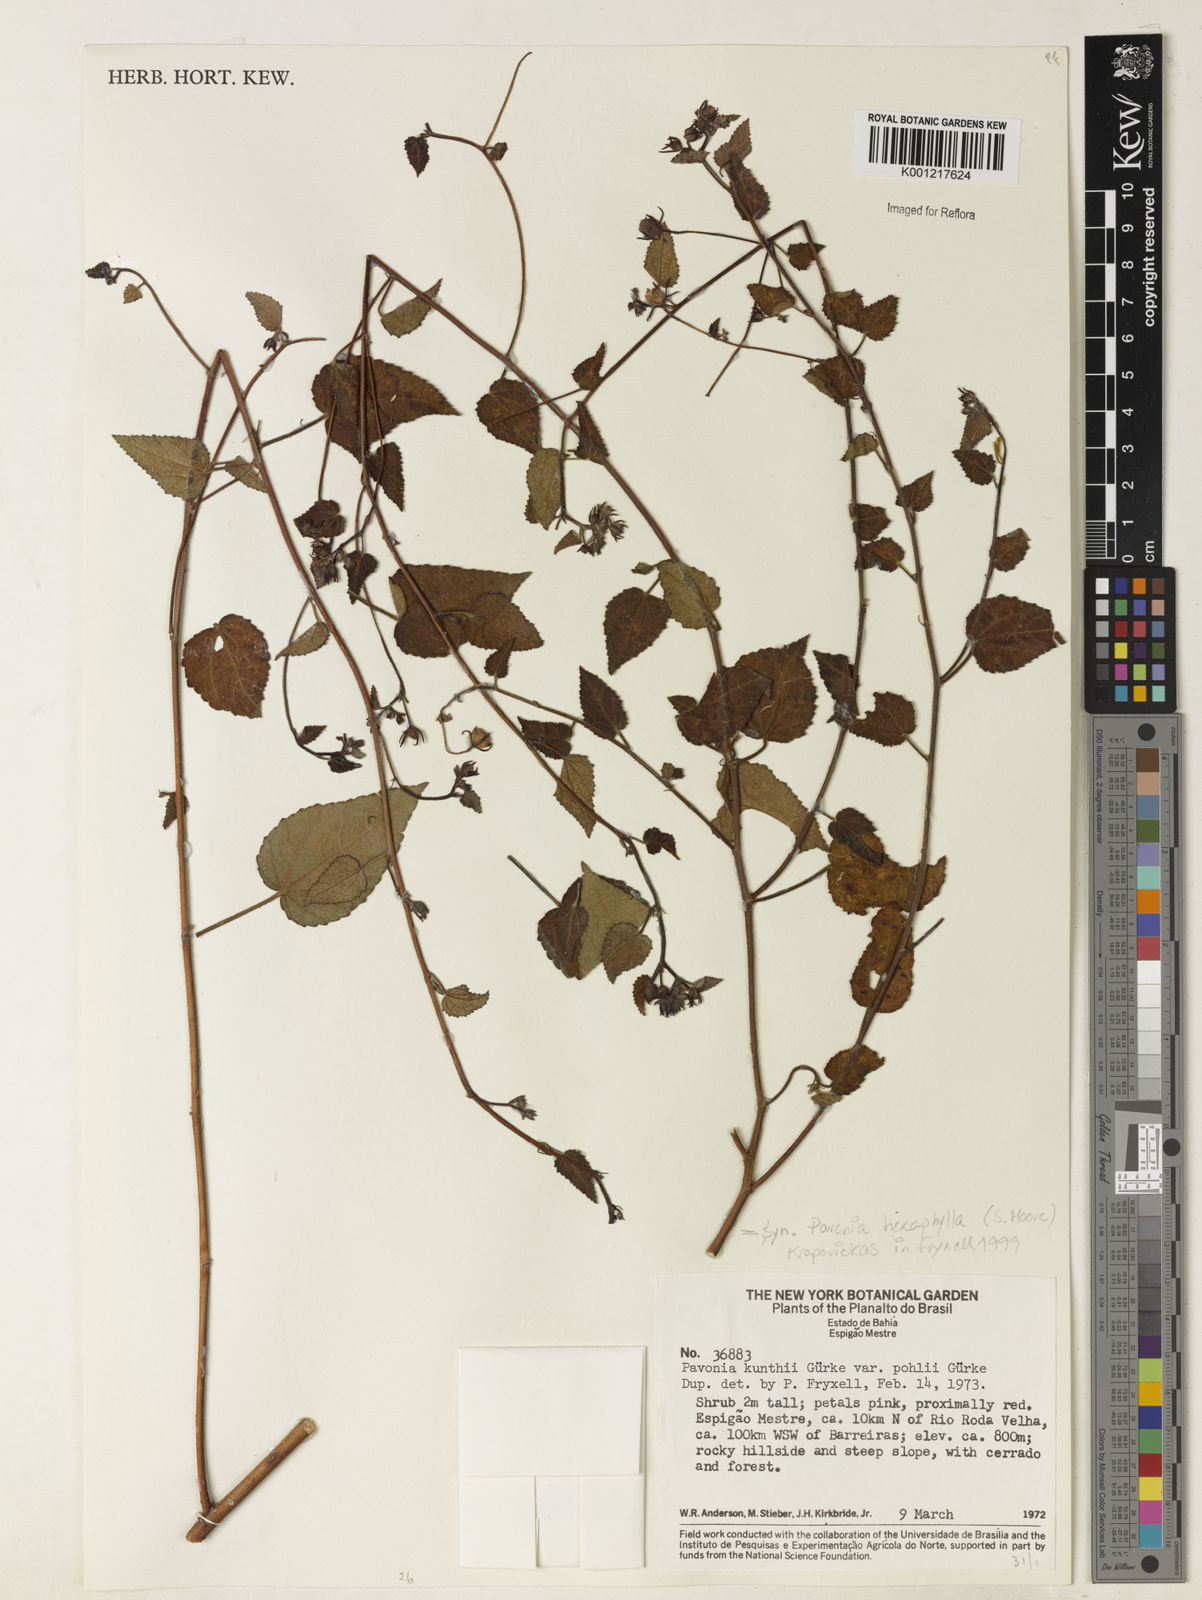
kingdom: Plantae
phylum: Tracheophyta
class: Magnoliopsida
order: Malvales
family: Malvaceae
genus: Pavonia
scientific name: Pavonia hexaphylla
